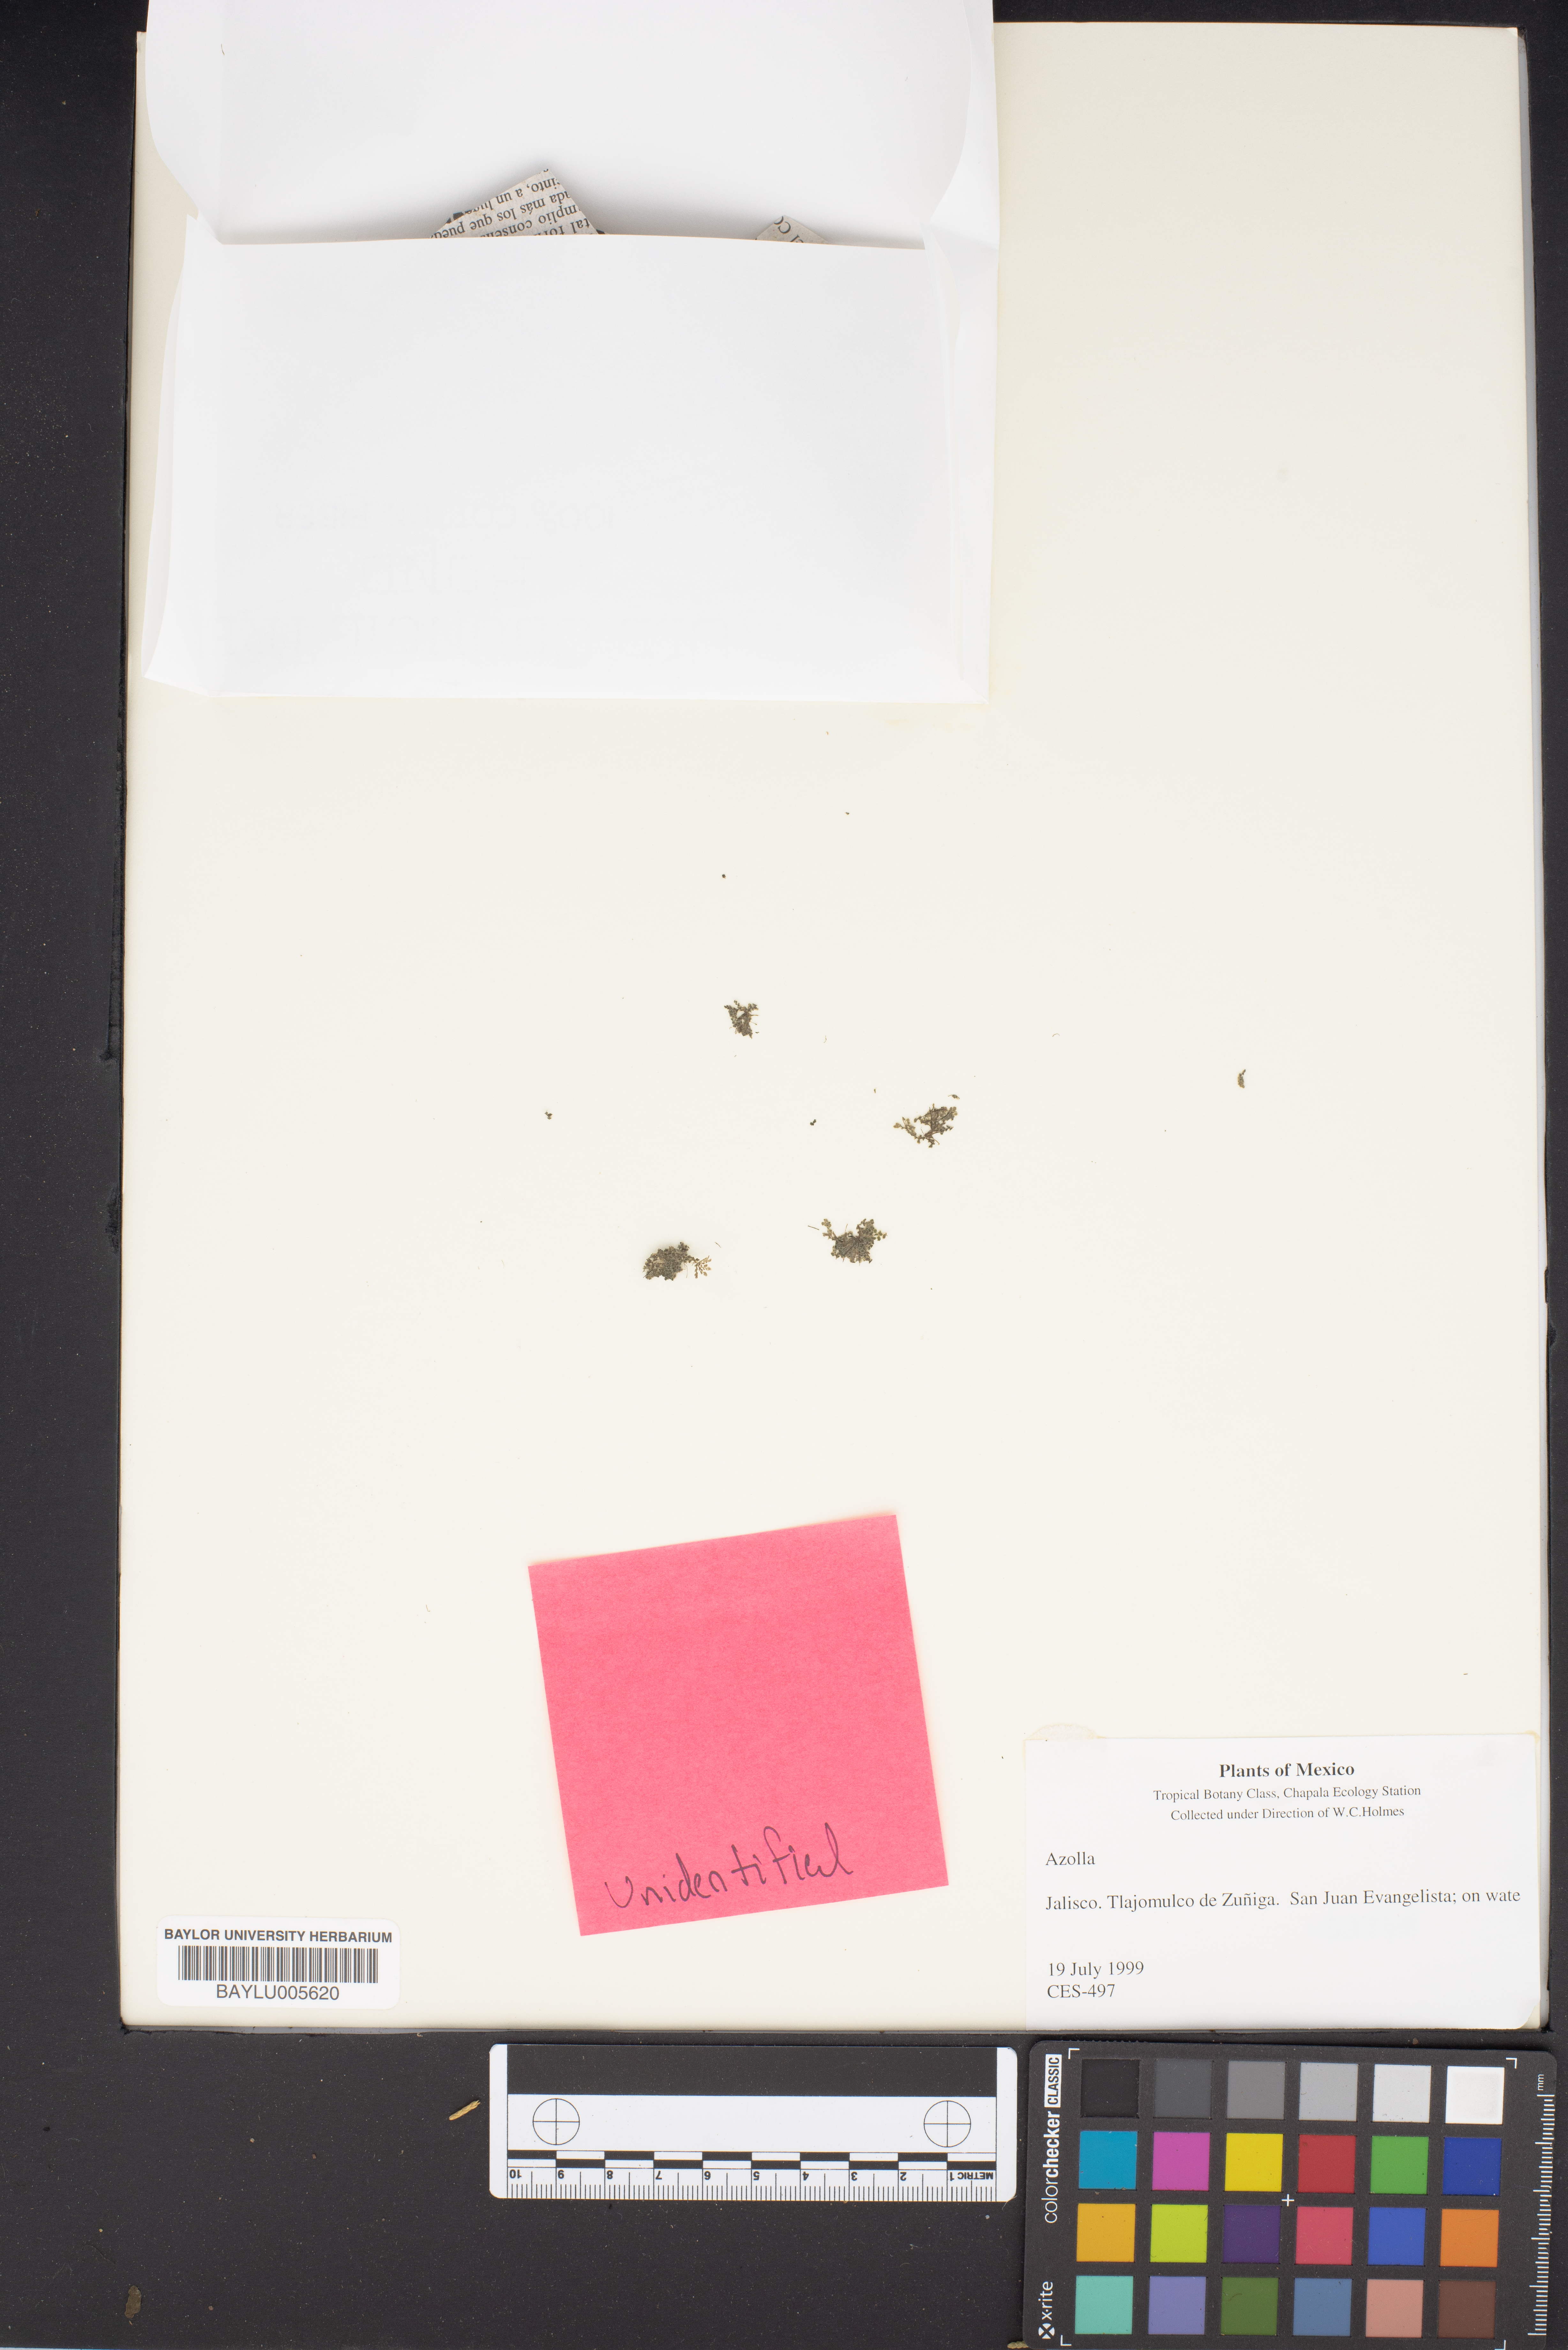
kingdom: Plantae
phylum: Tracheophyta
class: Polypodiopsida
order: Salviniales
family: Salviniaceae
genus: Azolla
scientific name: Azolla
